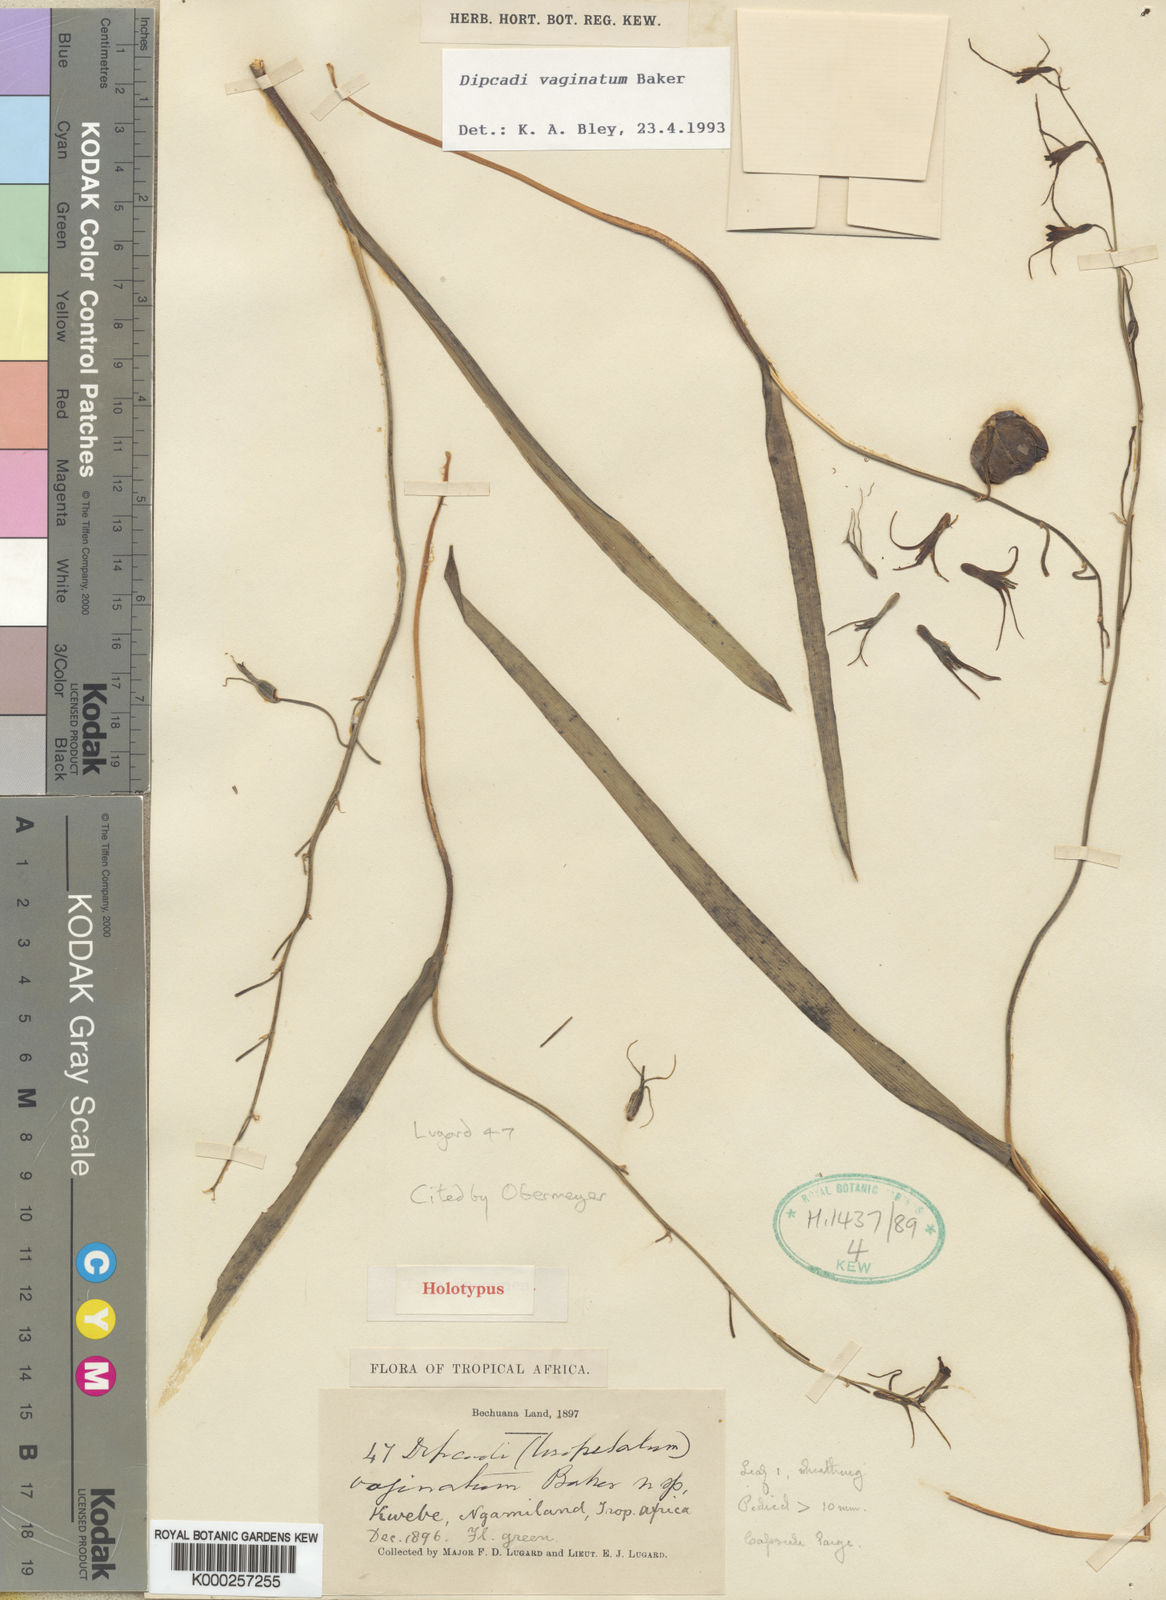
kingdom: Plantae
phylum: Tracheophyta
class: Liliopsida
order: Asparagales
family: Asparagaceae
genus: Dipcadi
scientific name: Dipcadi vaginatum
